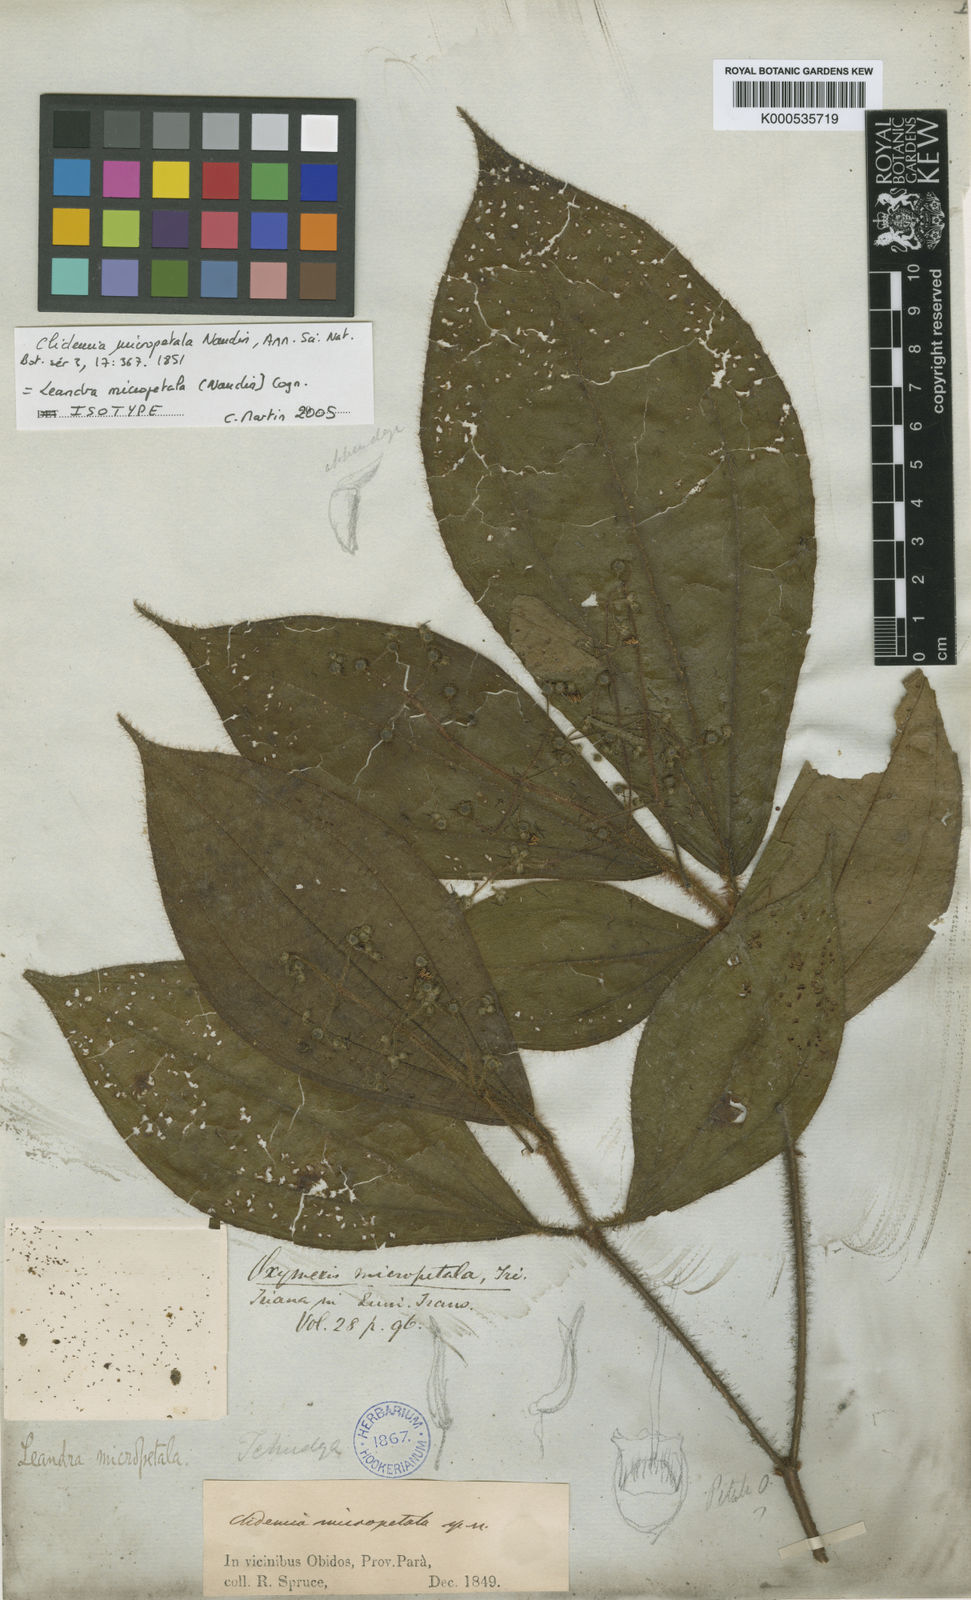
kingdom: Plantae
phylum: Tracheophyta
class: Magnoliopsida
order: Myrtales
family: Melastomataceae
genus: Miconia
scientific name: Miconia nanopetala
